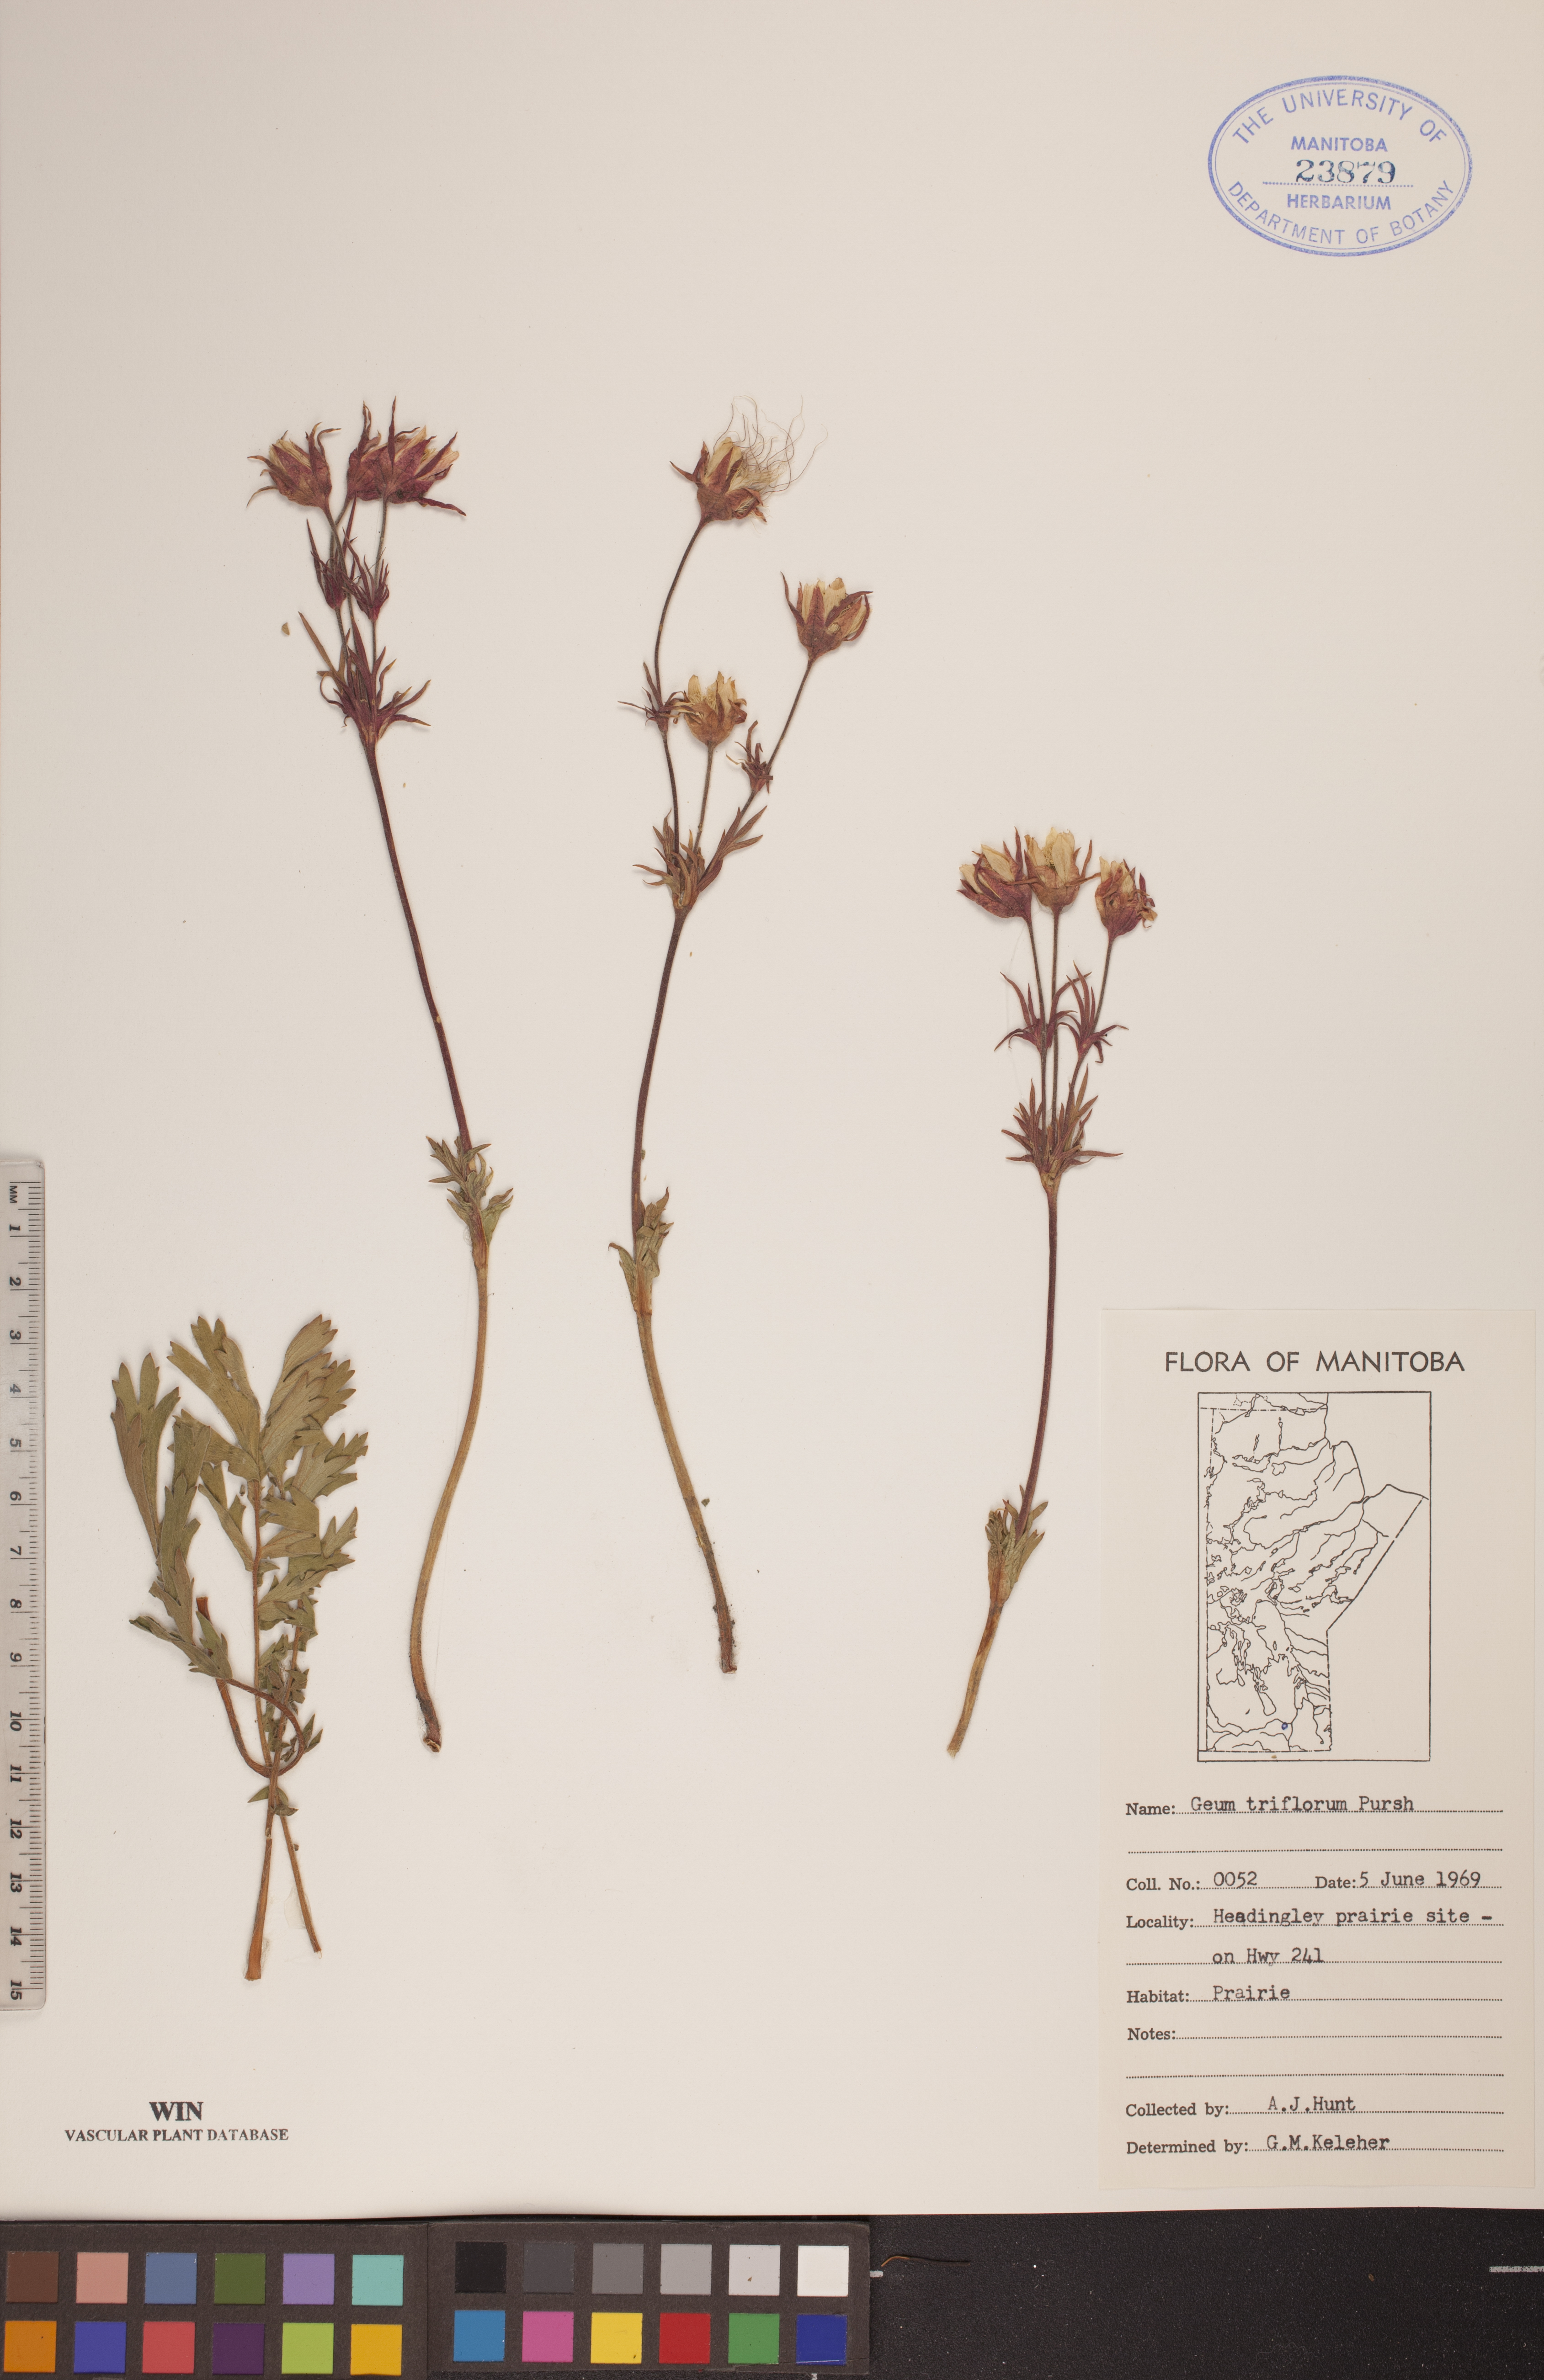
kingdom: Plantae
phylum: Tracheophyta
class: Magnoliopsida
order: Rosales
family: Rosaceae
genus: Geum
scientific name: Geum triflorum
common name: Old man's whiskers
